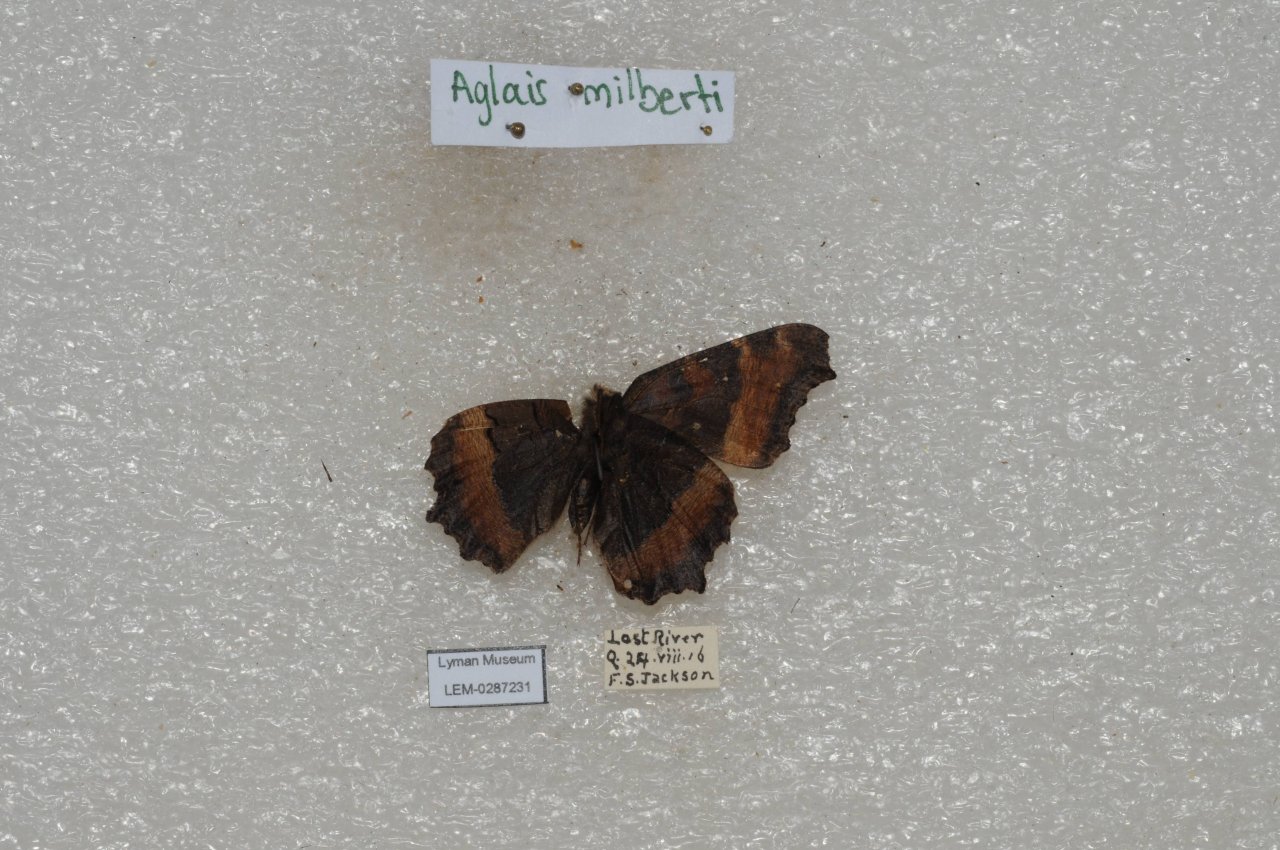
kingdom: Animalia
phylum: Arthropoda
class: Insecta
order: Lepidoptera
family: Nymphalidae
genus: Aglais
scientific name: Aglais milberti
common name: Milbert's Tortoiseshell
